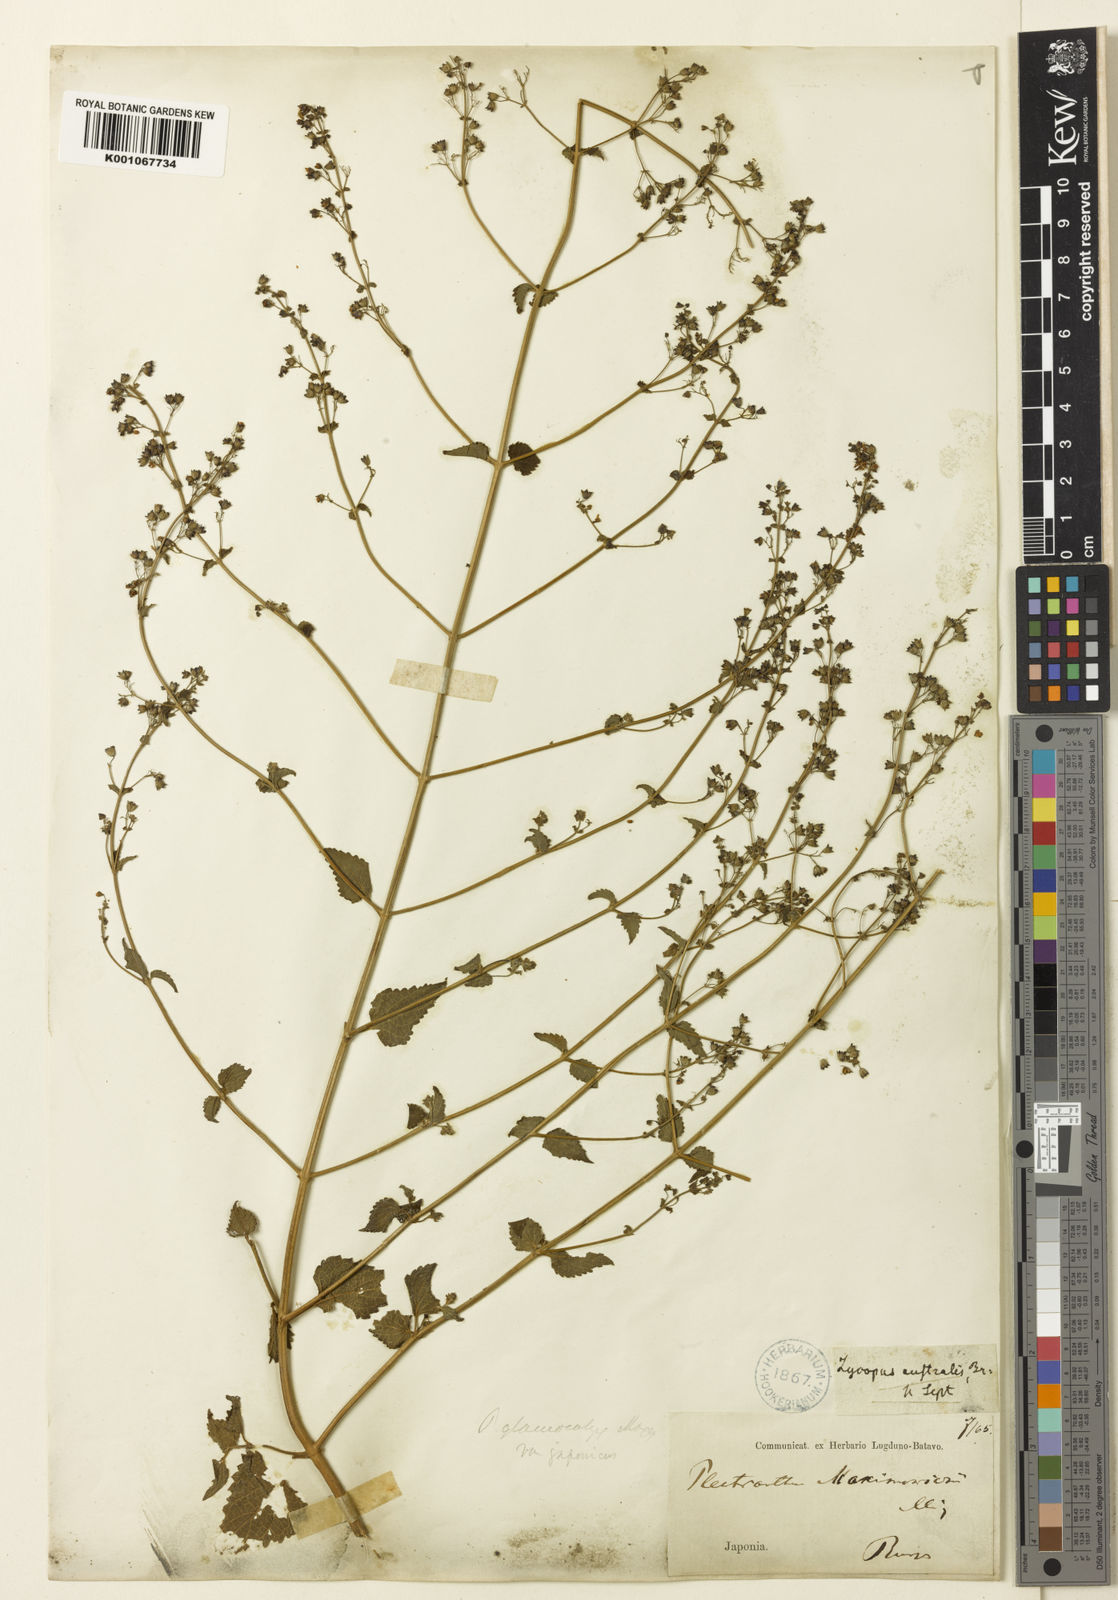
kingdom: Plantae
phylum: Tracheophyta
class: Magnoliopsida
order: Lamiales
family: Lamiaceae
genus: Isodon
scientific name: Isodon japonicus
